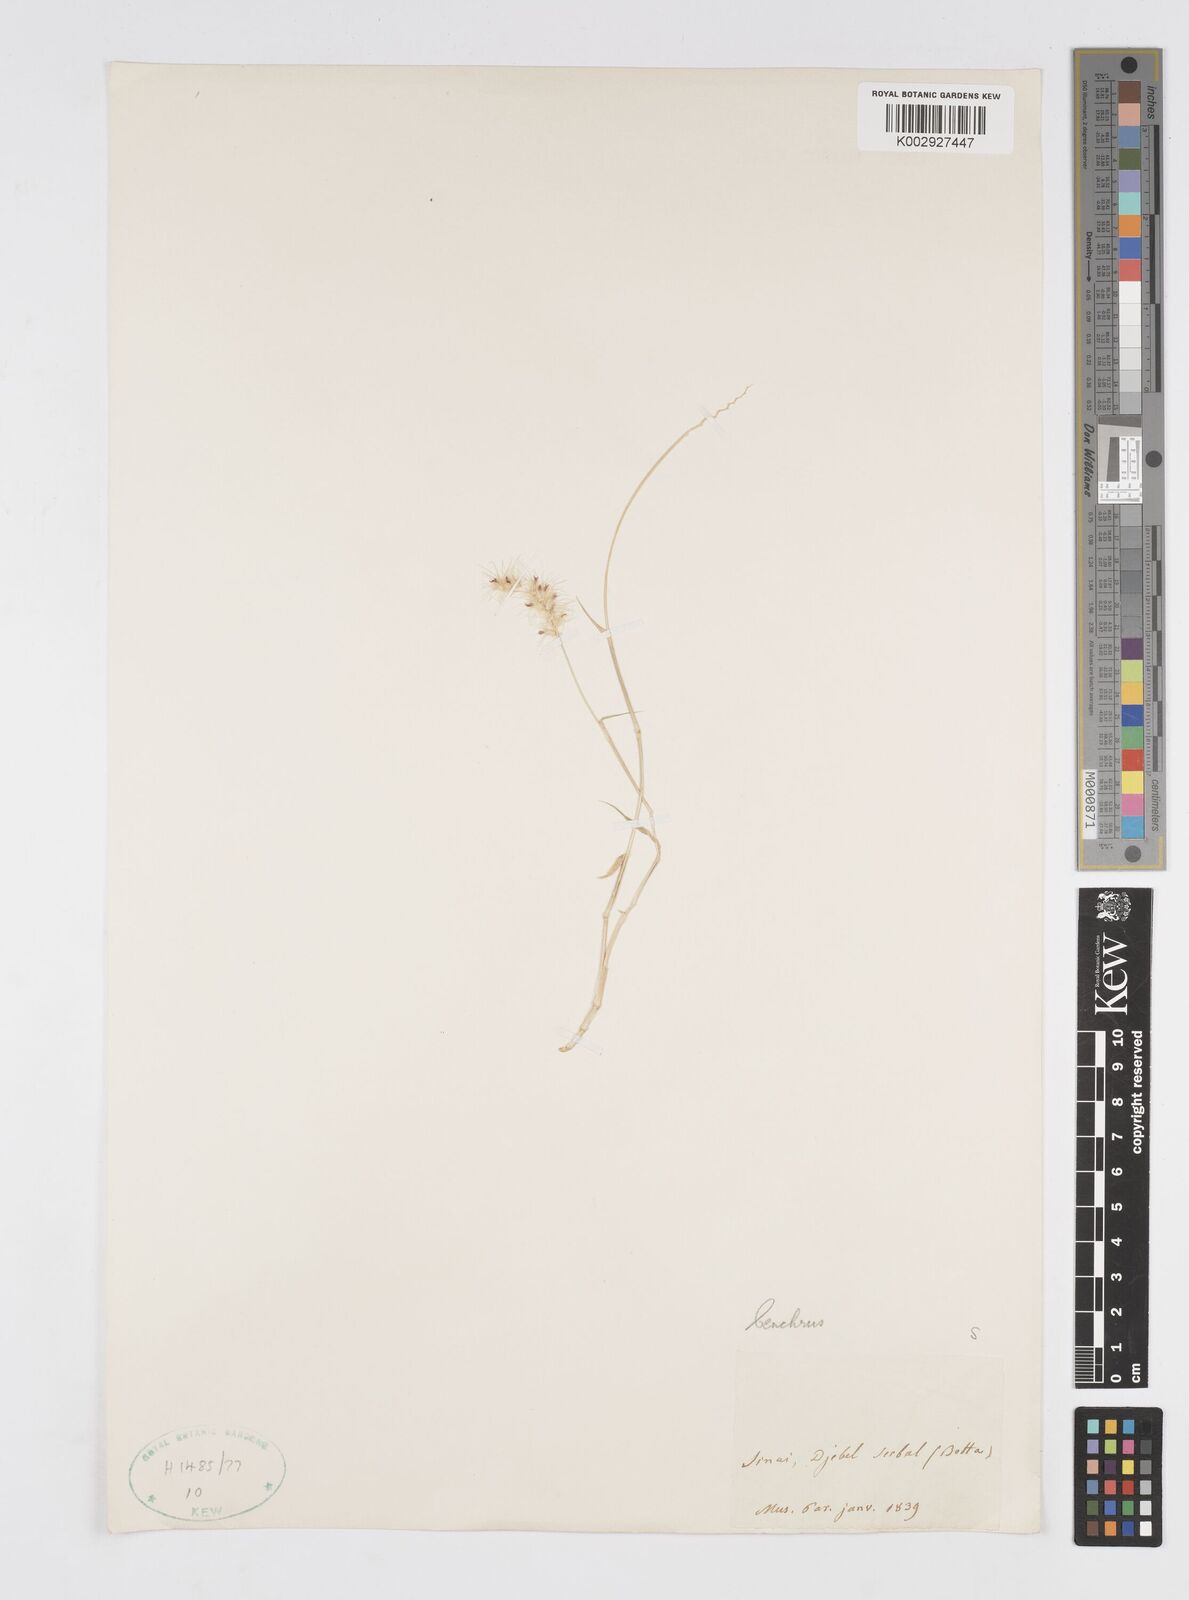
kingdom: Plantae
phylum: Tracheophyta
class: Liliopsida
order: Poales
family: Poaceae
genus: Cenchrus
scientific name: Cenchrus ciliaris
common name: Buffelgrass
